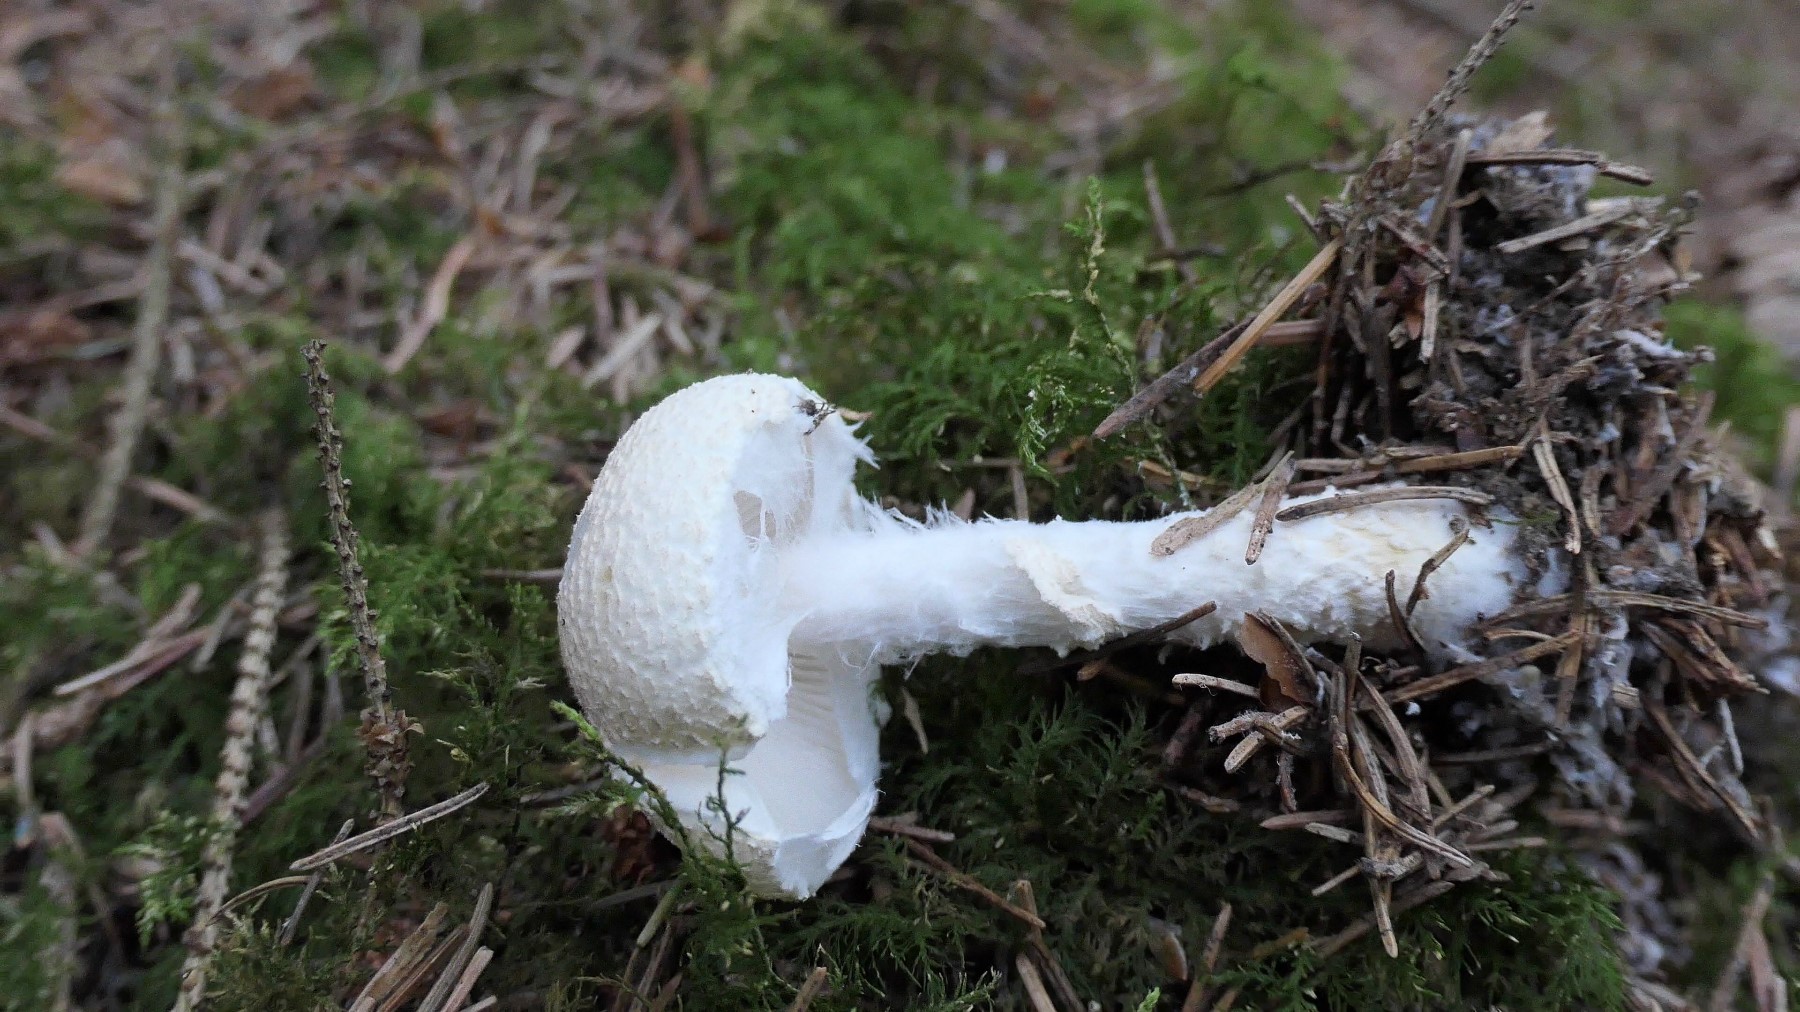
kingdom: Fungi
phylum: Basidiomycota
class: Agaricomycetes
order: Agaricales
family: Agaricaceae
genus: Lepiota
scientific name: Lepiota clypeolaria
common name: flosset parasolhat
